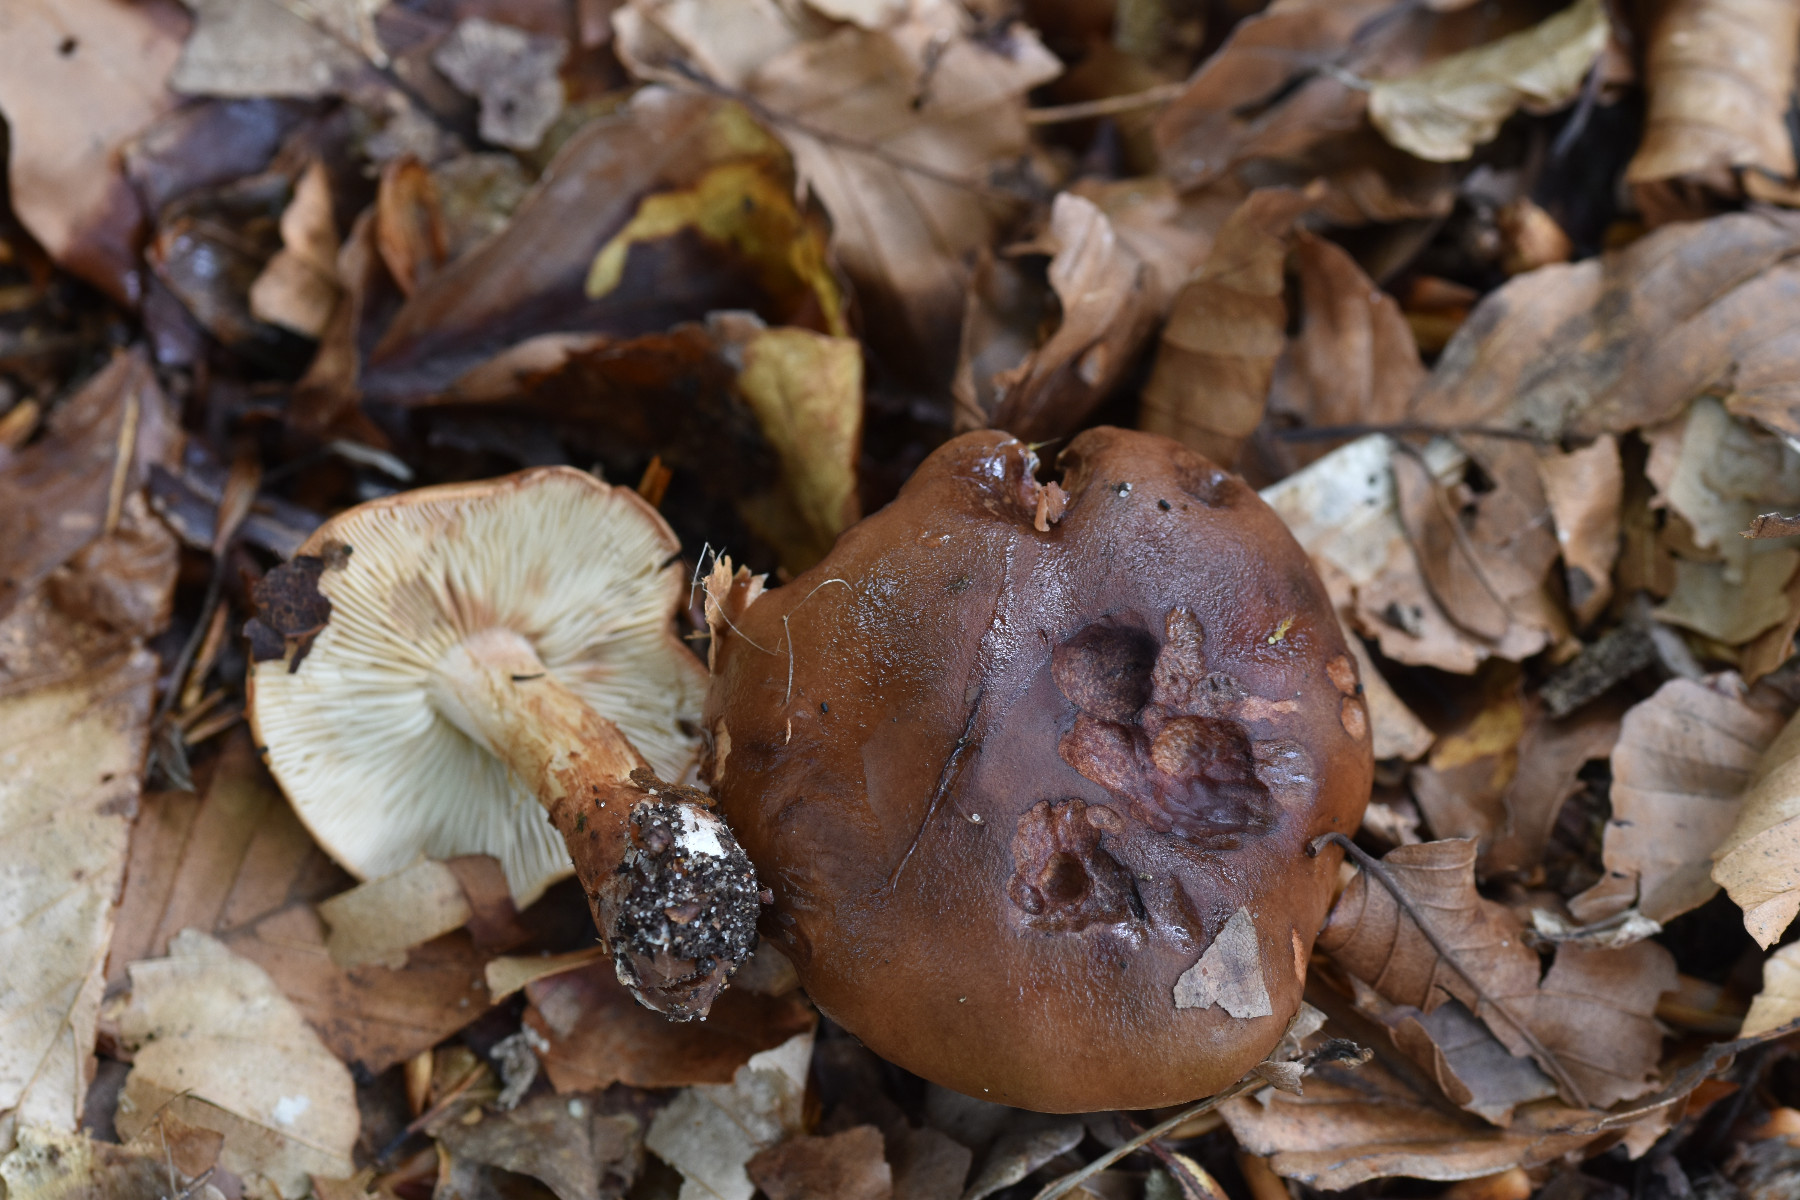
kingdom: Fungi
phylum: Basidiomycota
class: Agaricomycetes
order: Agaricales
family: Tricholomataceae
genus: Tricholoma
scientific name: Tricholoma ustale
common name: sveden ridderhat
